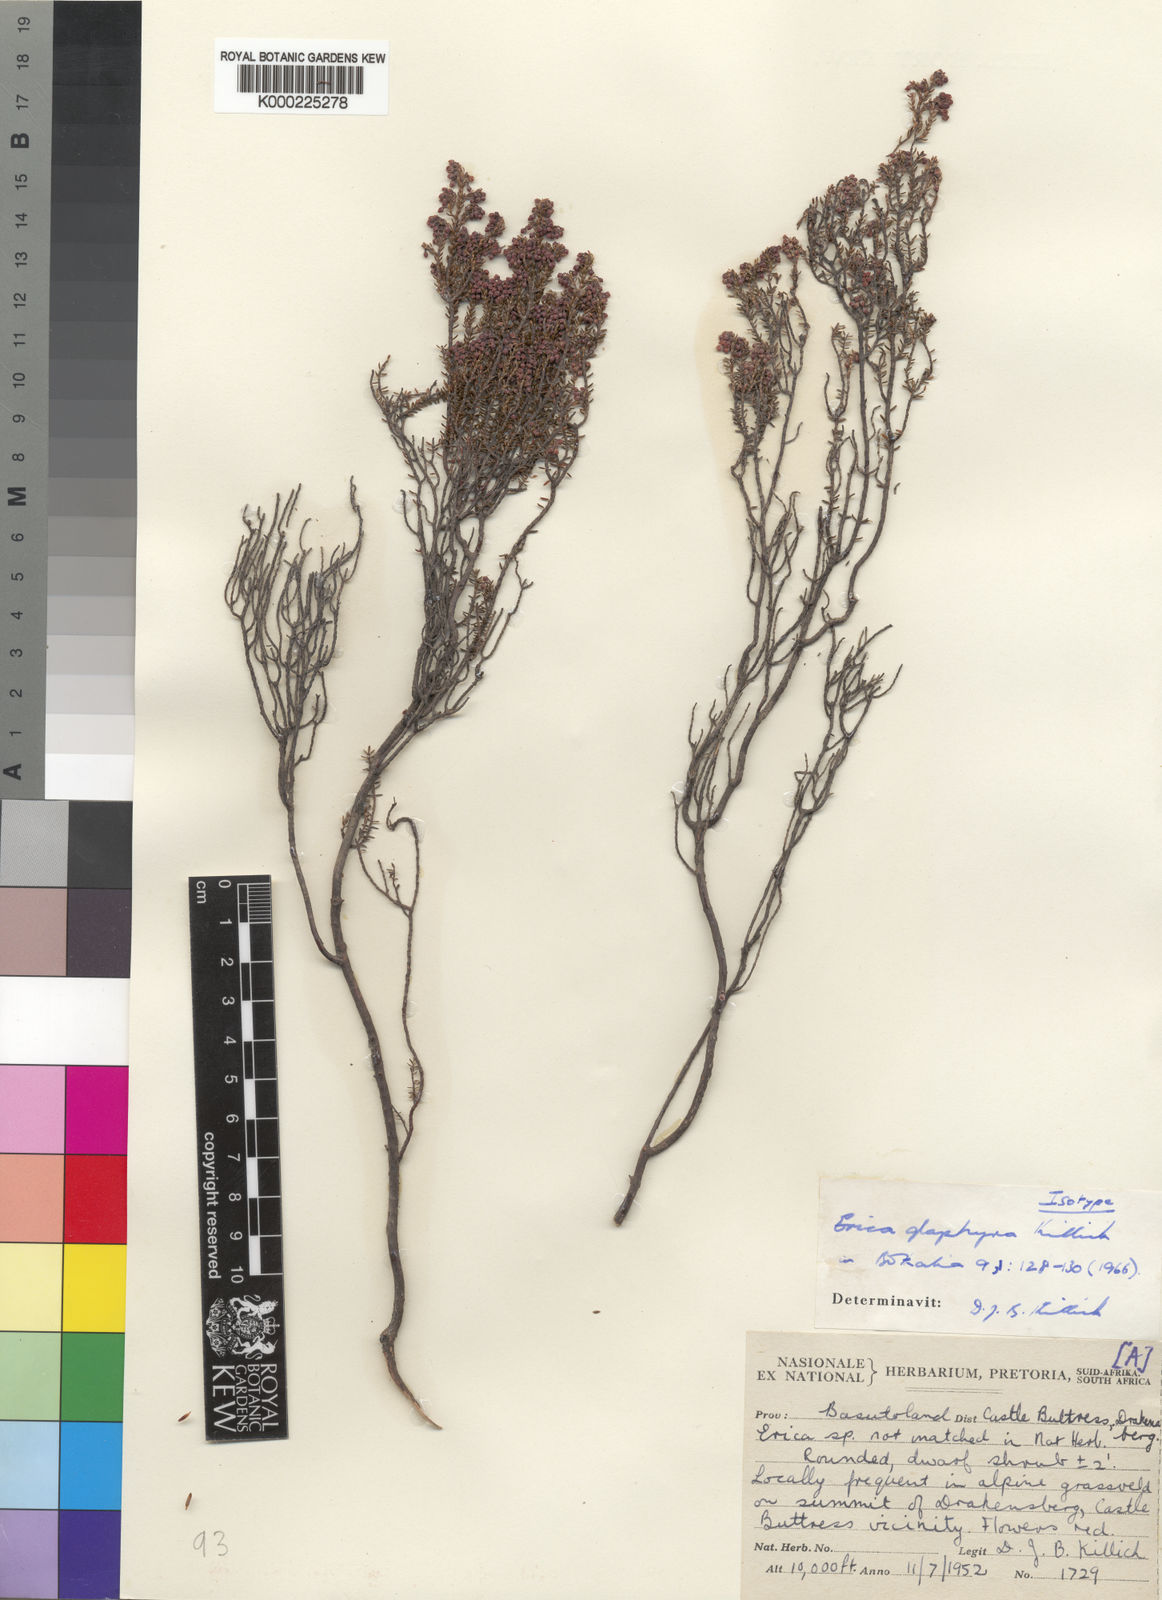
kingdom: Plantae
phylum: Tracheophyta
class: Magnoliopsida
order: Ericales
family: Ericaceae
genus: Erica
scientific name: Erica glaphyra
